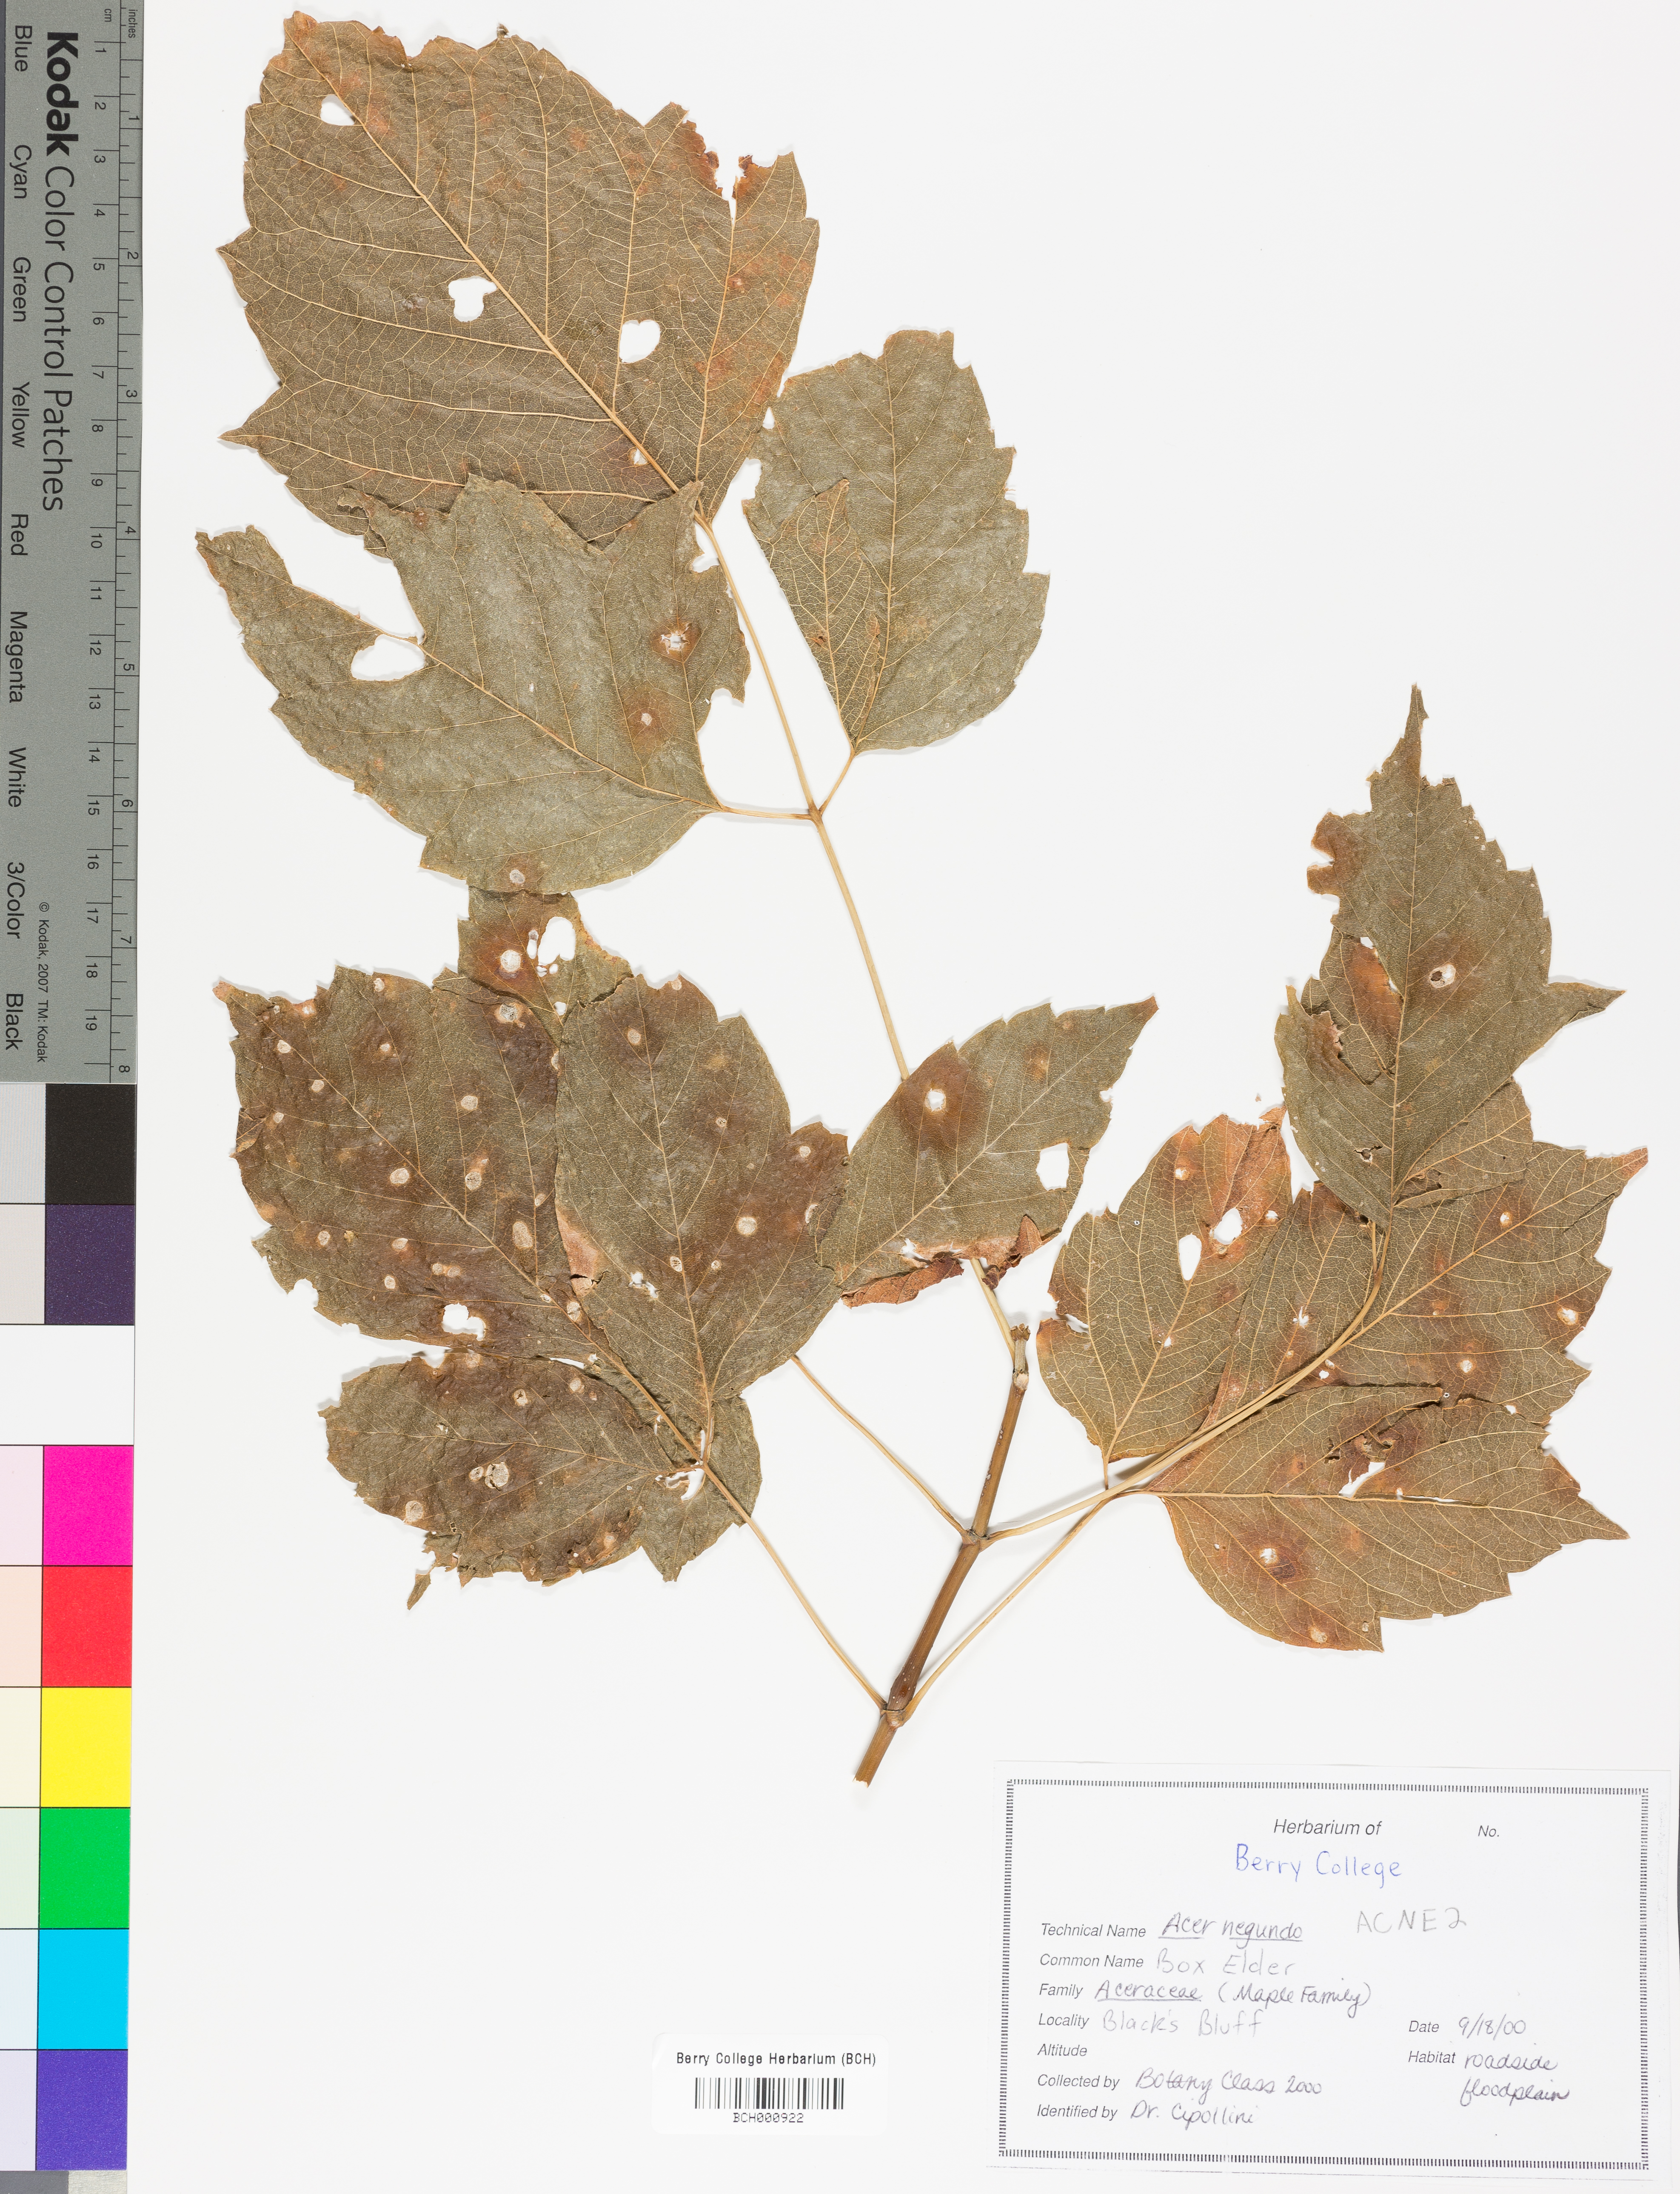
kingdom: Plantae
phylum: Tracheophyta
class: Magnoliopsida
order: Sapindales
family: Sapindaceae
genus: Acer
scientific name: Acer negundo
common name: Ashleaf maple
